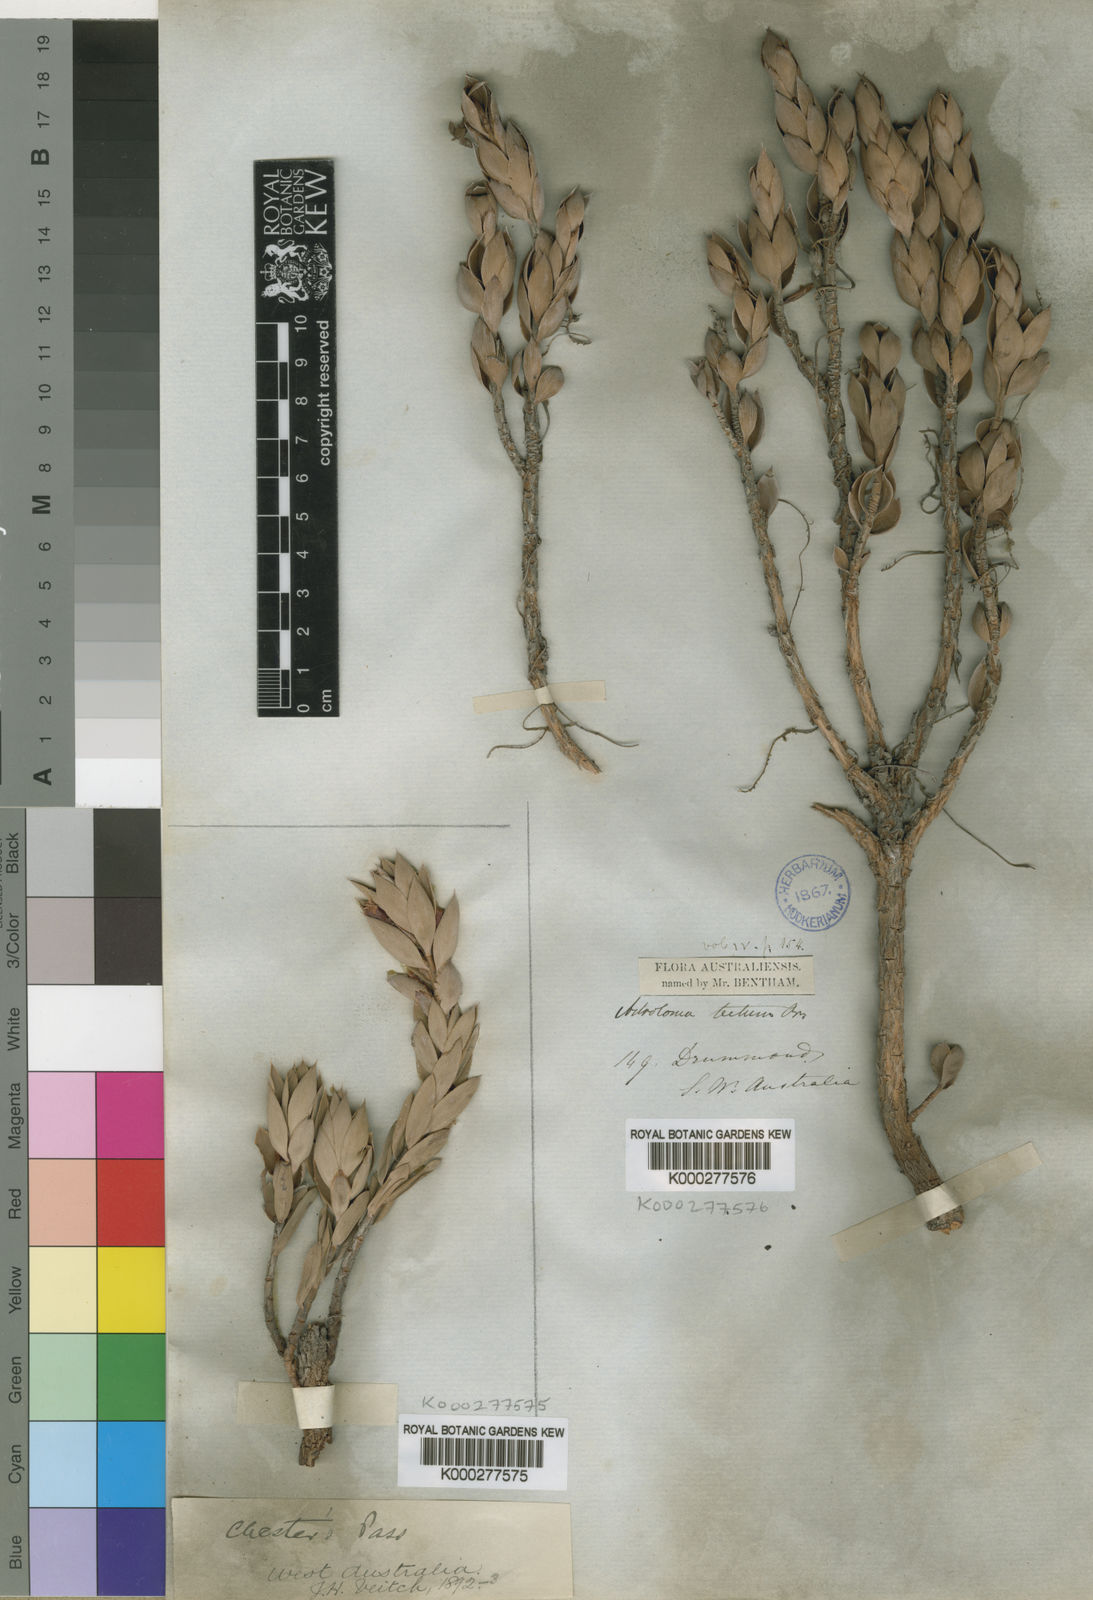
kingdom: Plantae
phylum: Tracheophyta
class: Magnoliopsida
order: Ericales
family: Ericaceae
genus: Styphelia
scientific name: Styphelia tecta
